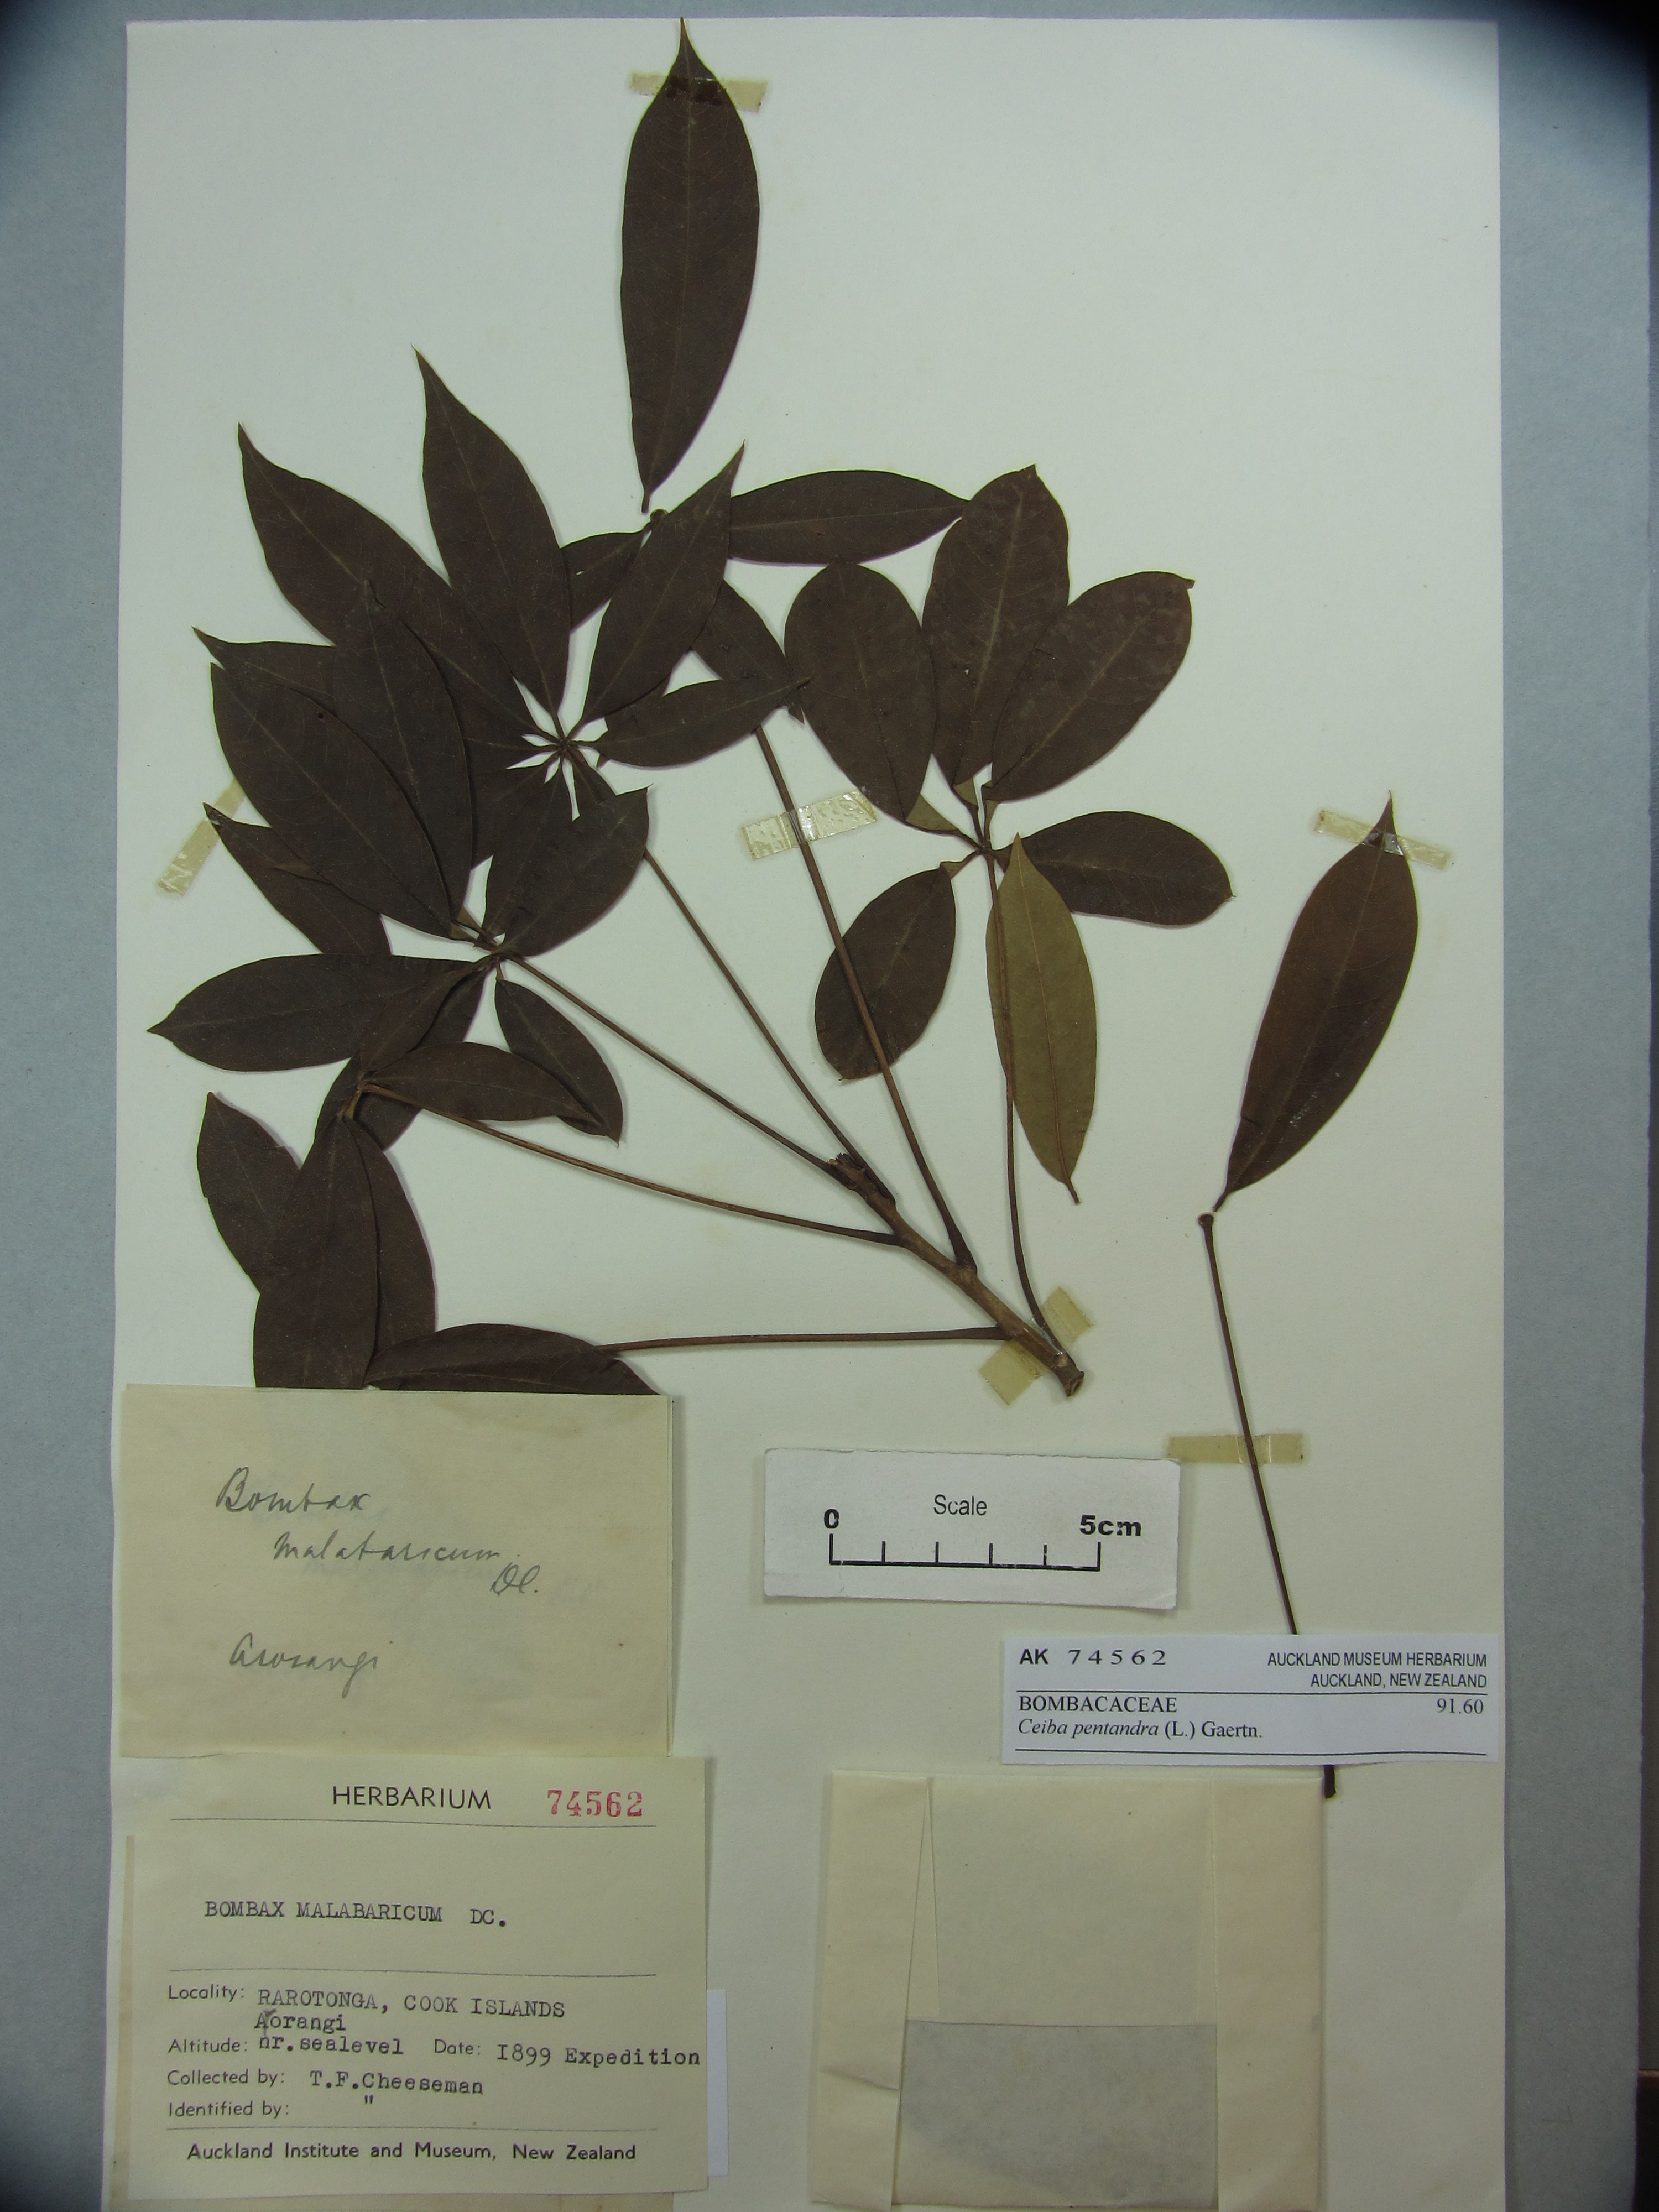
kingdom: Plantae
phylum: Tracheophyta
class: Magnoliopsida
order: Malvales
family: Malvaceae
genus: Ceiba
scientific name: Ceiba pentandra
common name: Kapok
